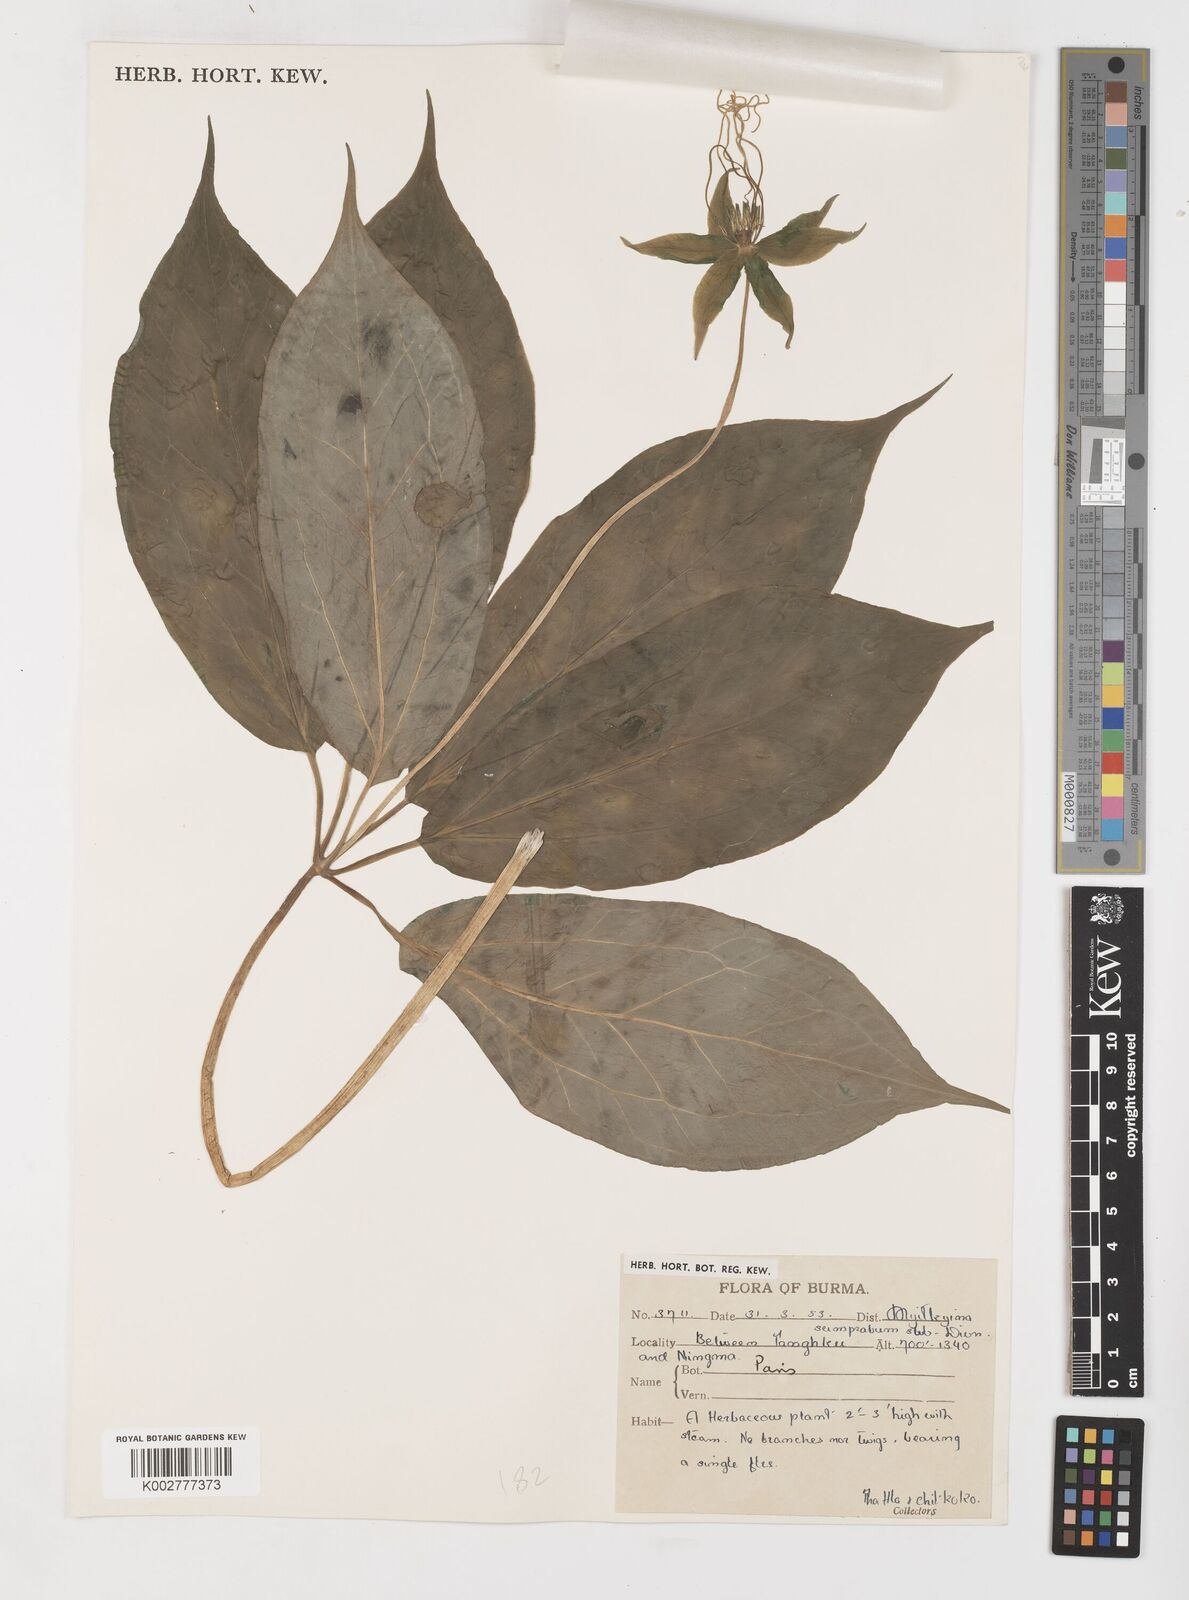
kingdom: Plantae
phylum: Tracheophyta
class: Liliopsida
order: Liliales
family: Melanthiaceae
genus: Paris
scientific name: Paris
